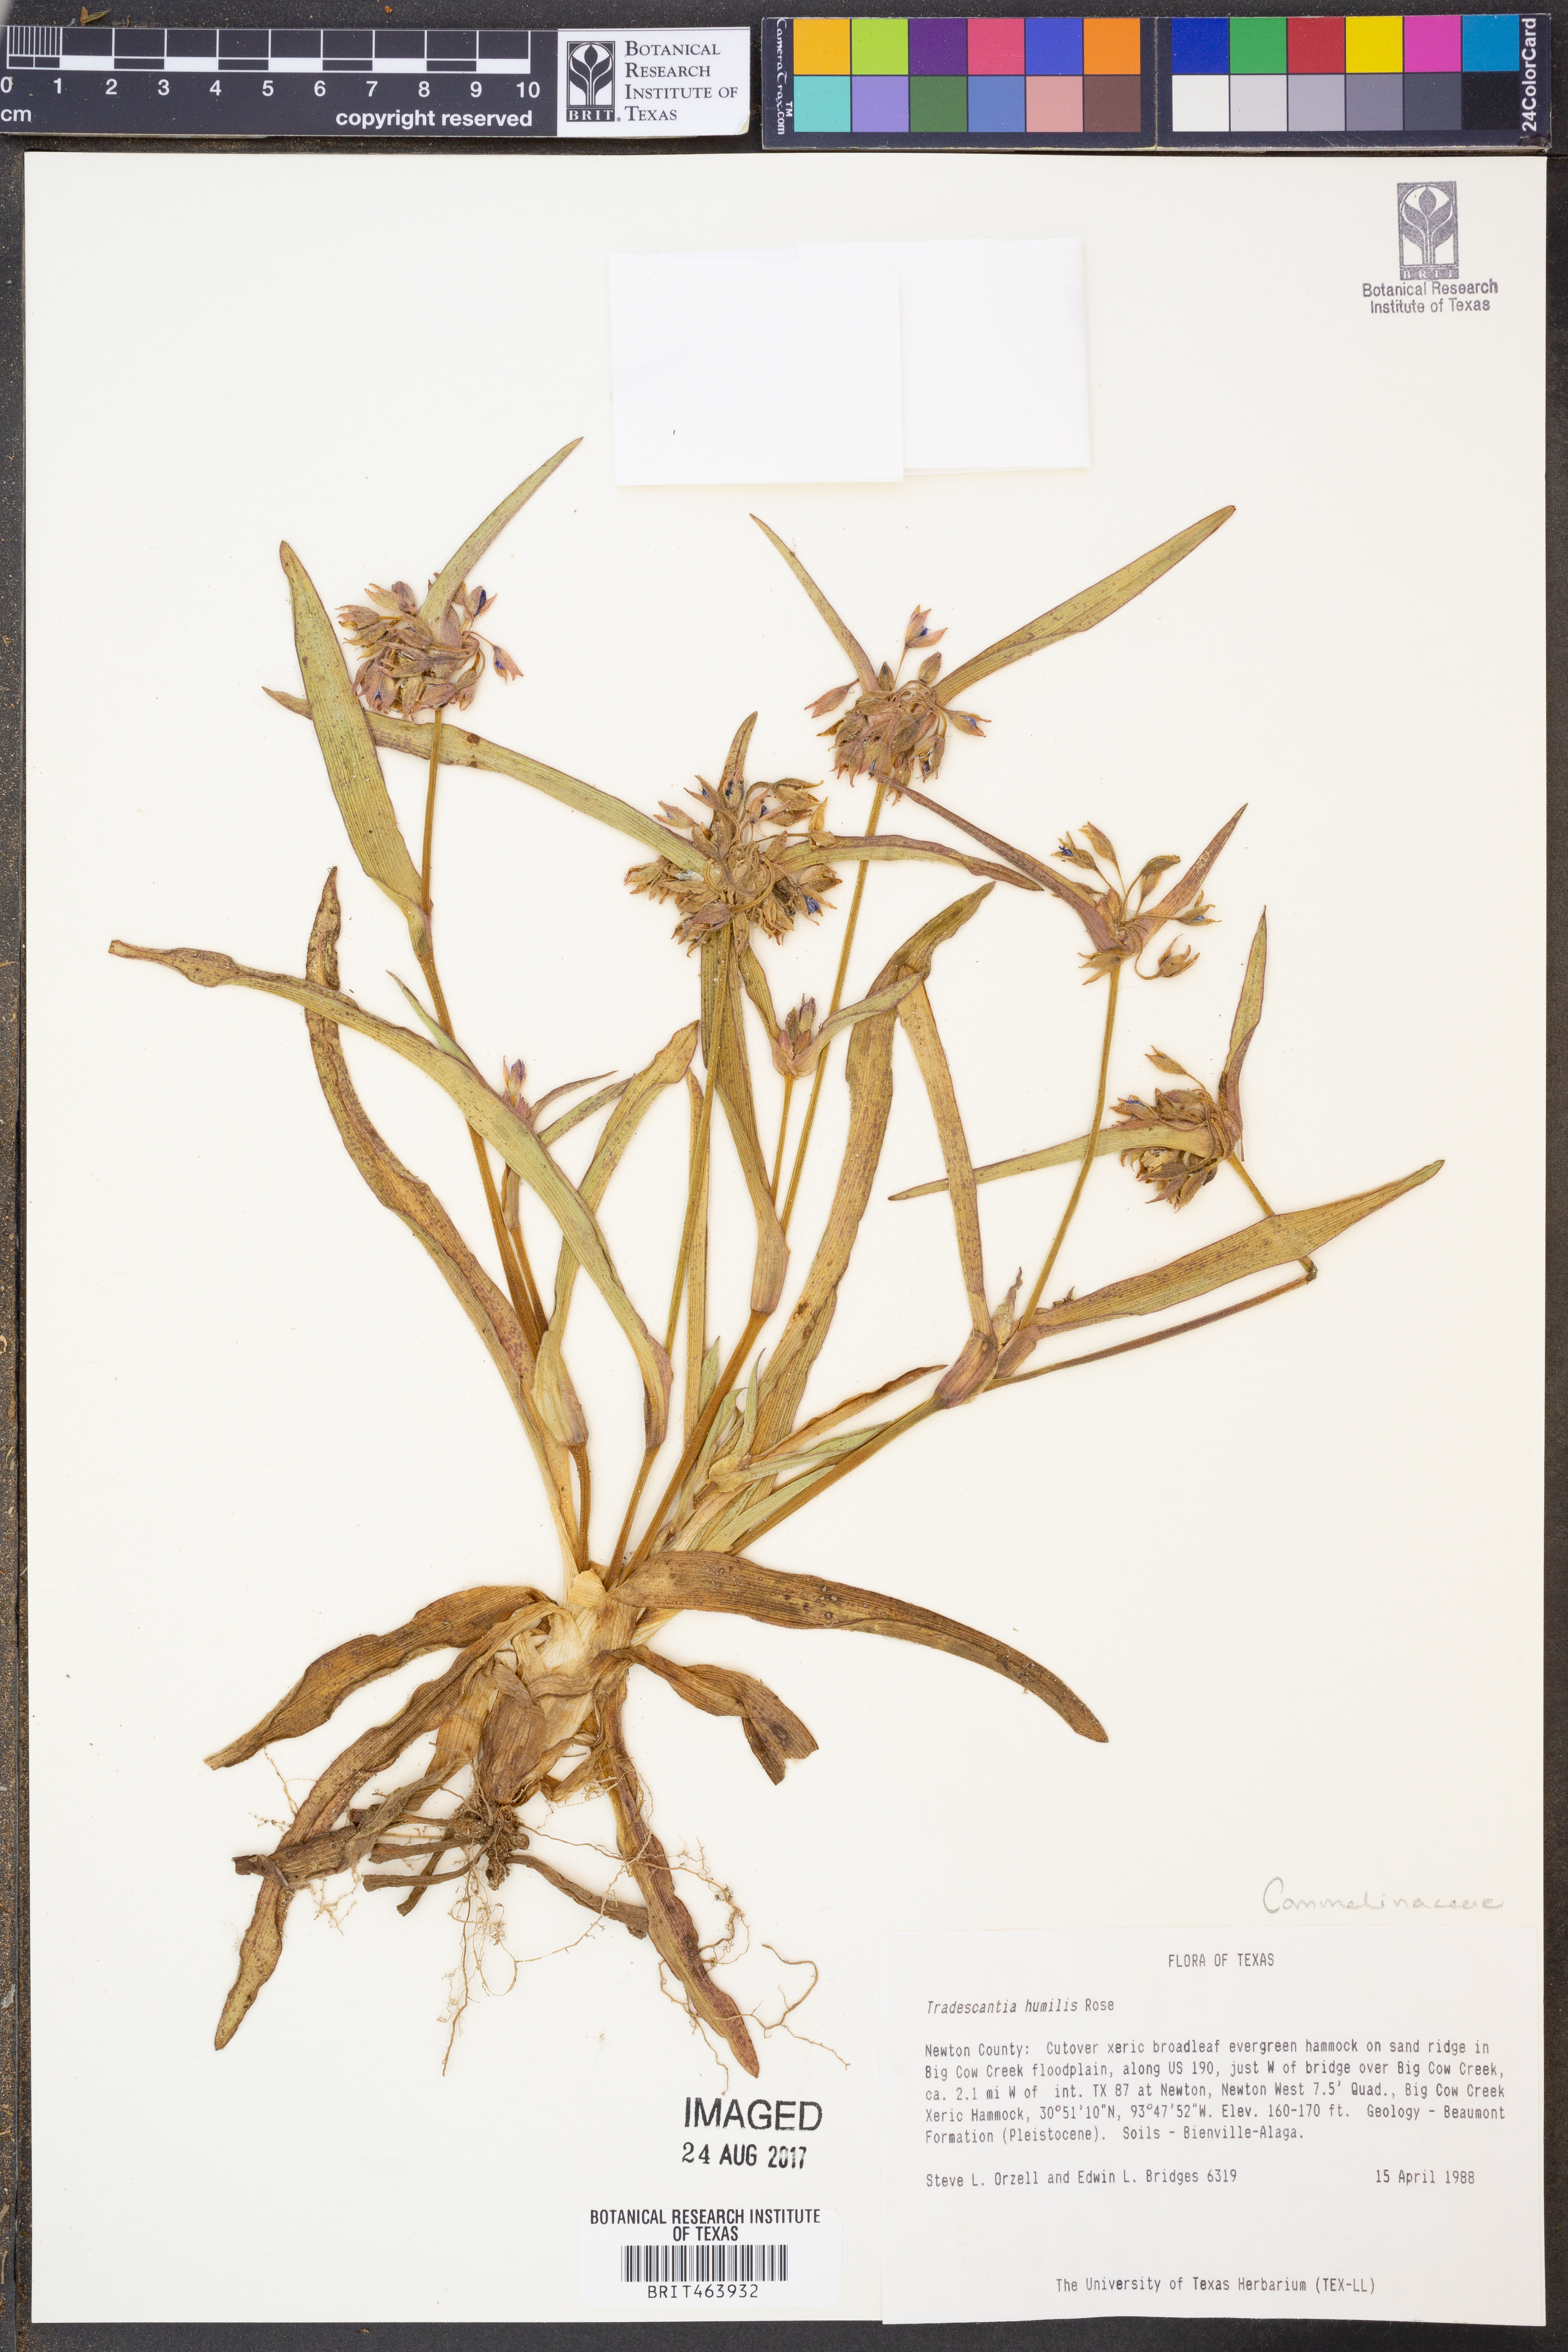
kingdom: Plantae
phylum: Tracheophyta
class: Liliopsida
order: Commelinales
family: Commelinaceae
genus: Tradescantia
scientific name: Tradescantia humilis
